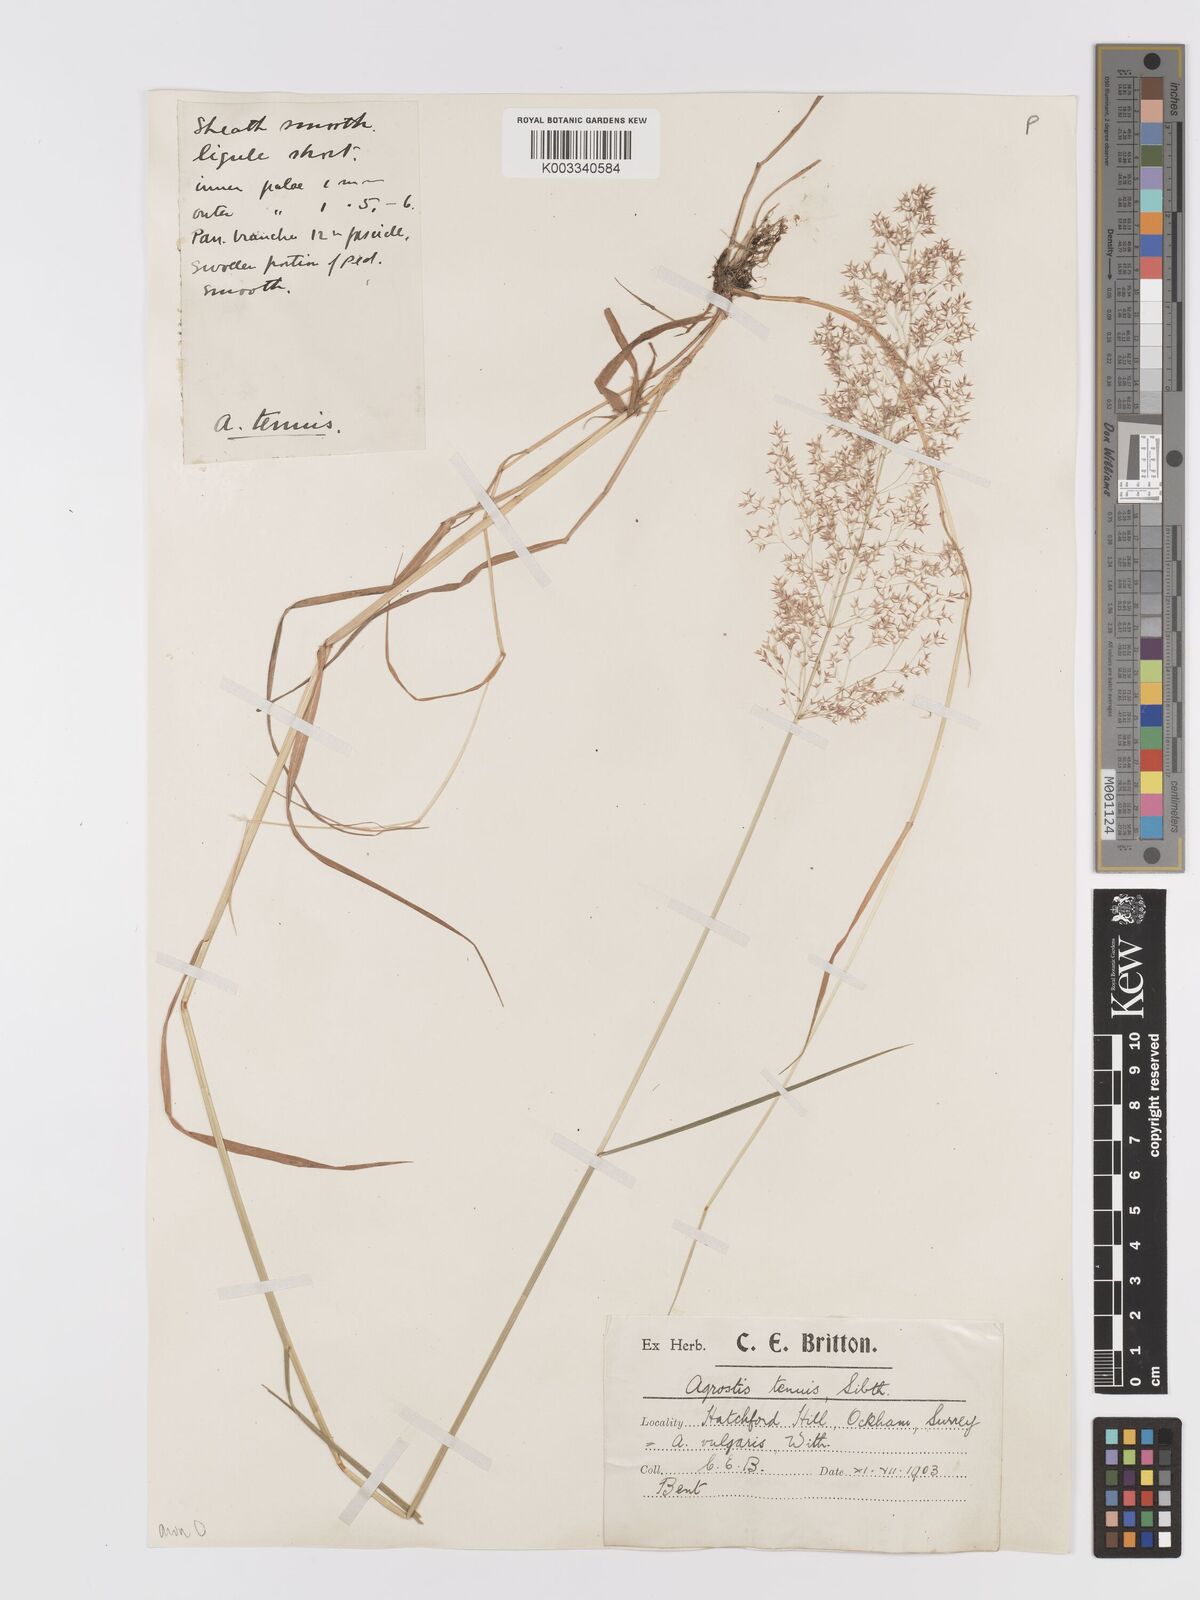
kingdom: Plantae
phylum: Tracheophyta
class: Liliopsida
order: Poales
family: Poaceae
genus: Agrostis
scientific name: Agrostis capillaris
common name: Colonial bentgrass
